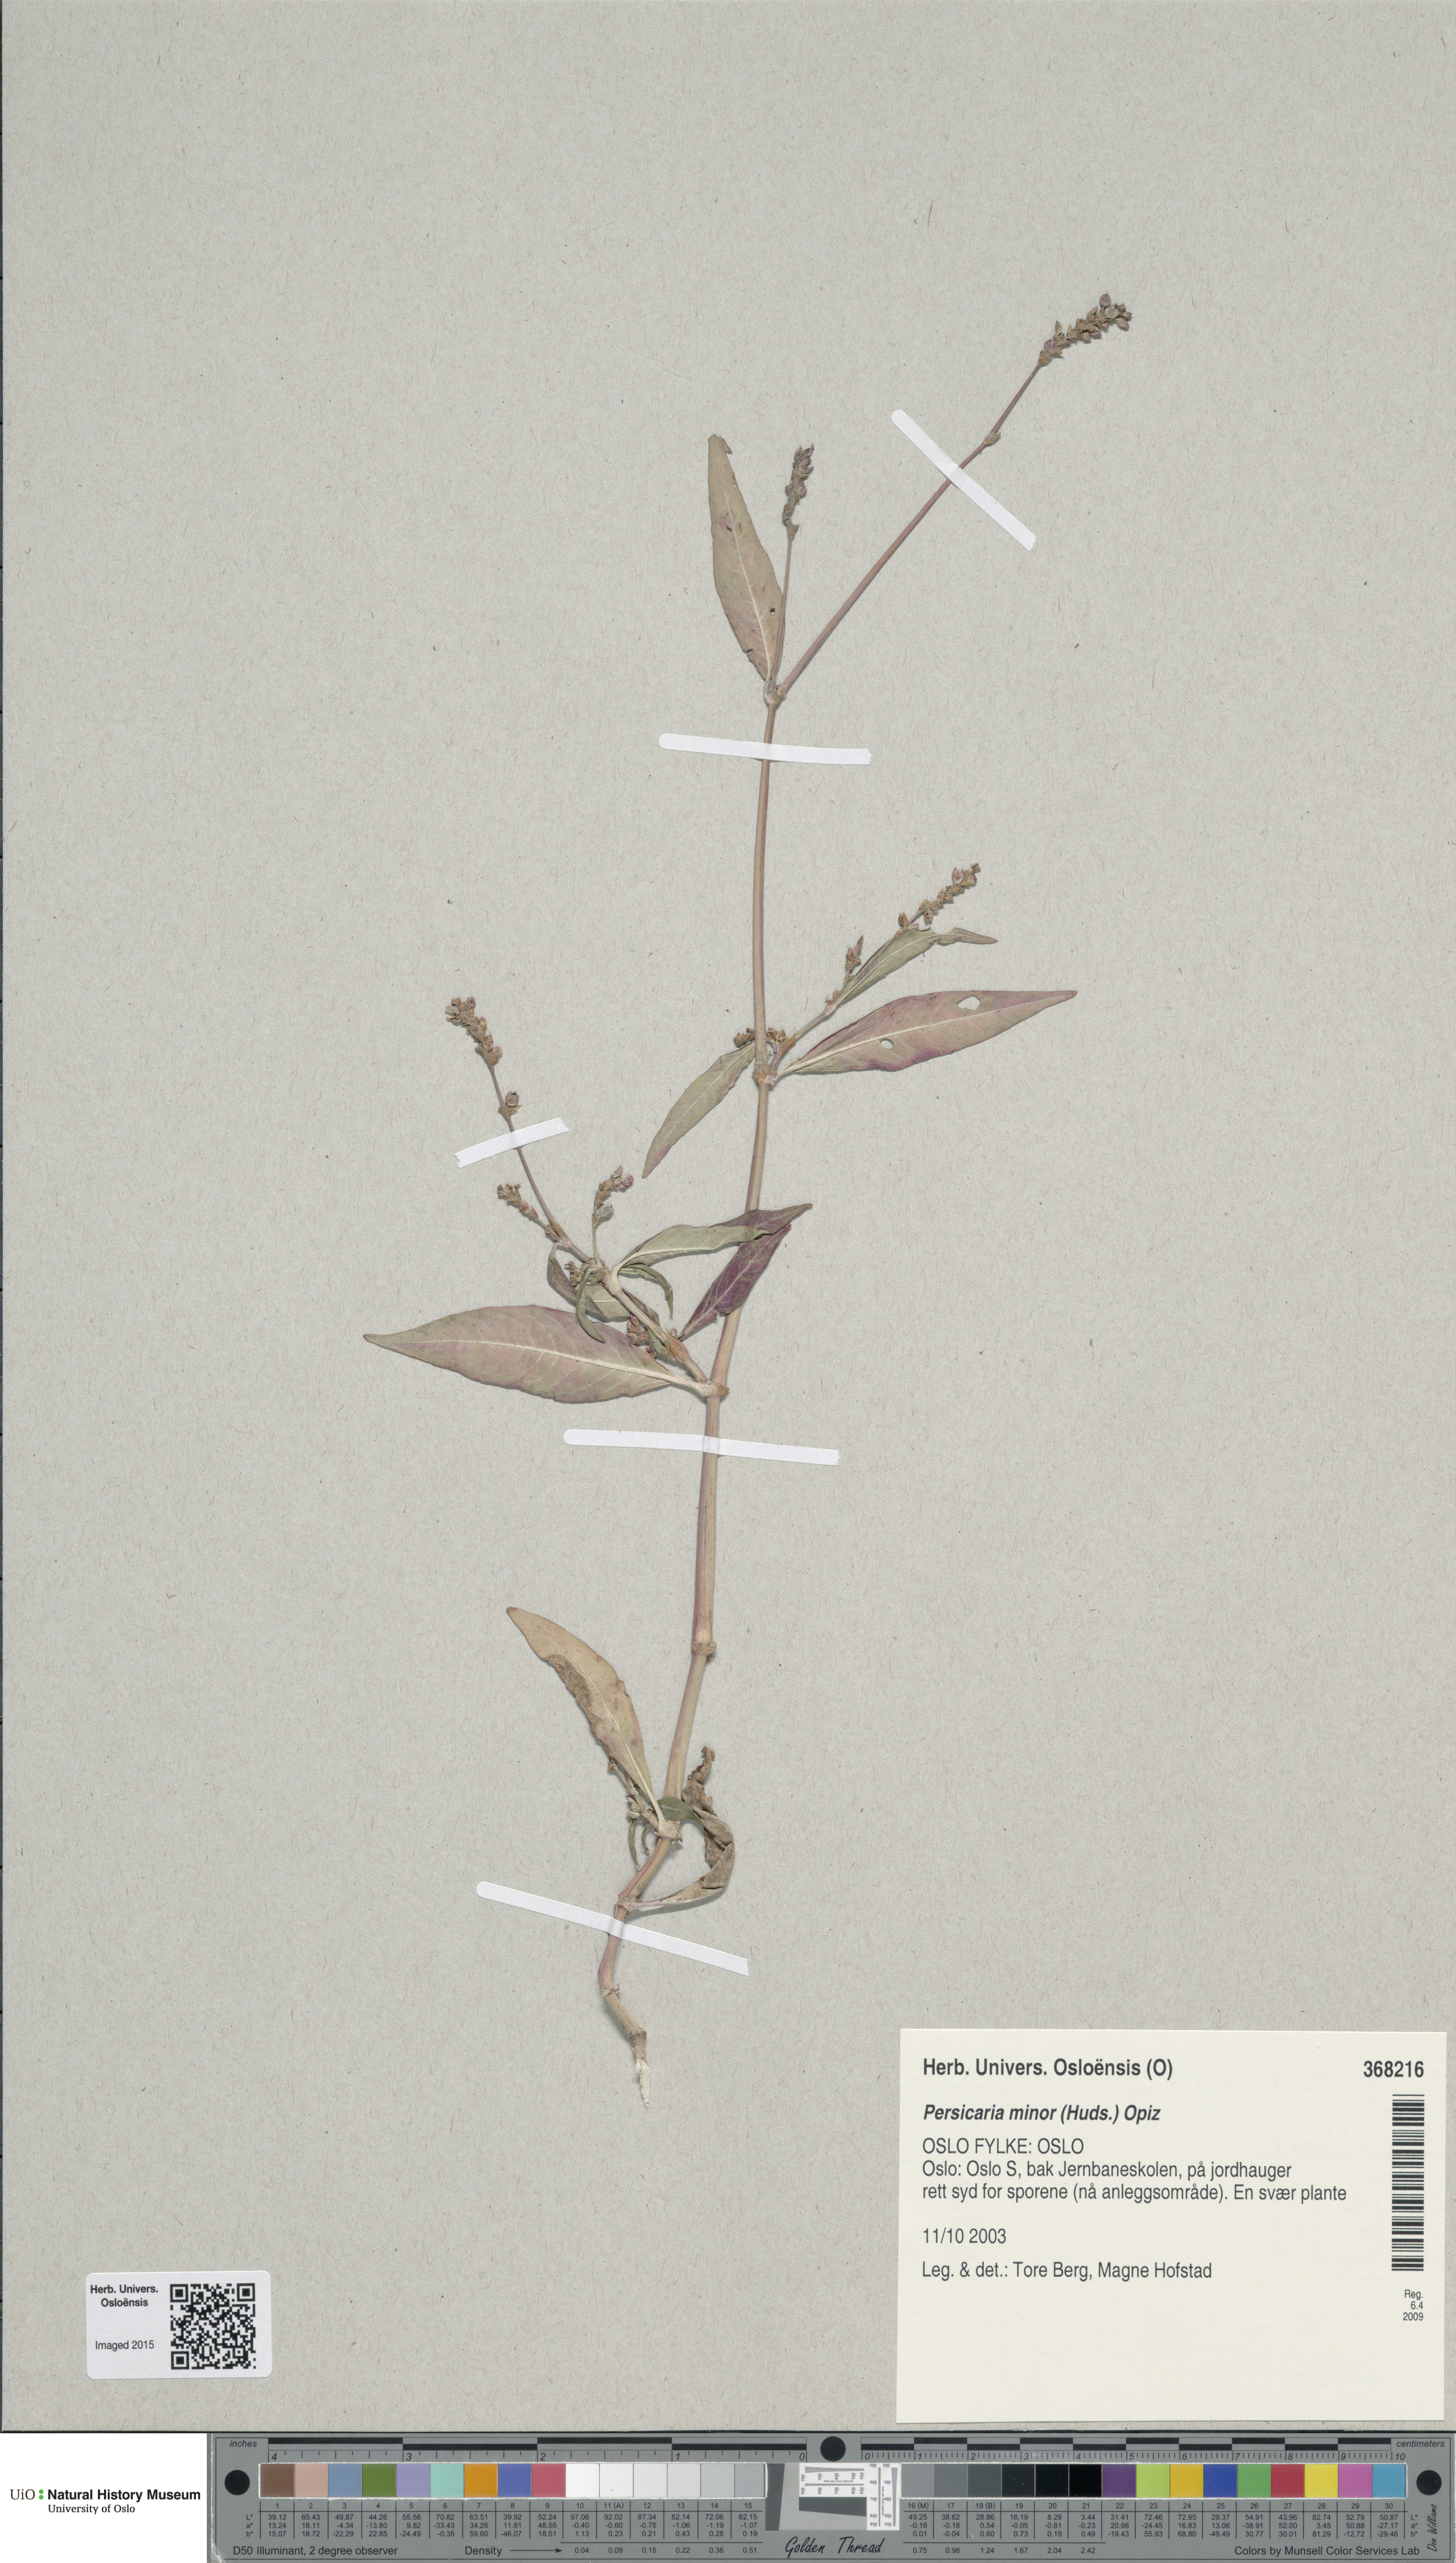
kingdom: Plantae
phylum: Tracheophyta
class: Magnoliopsida
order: Caryophyllales
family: Polygonaceae
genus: Persicaria
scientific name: Persicaria minor
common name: Small water-pepper
